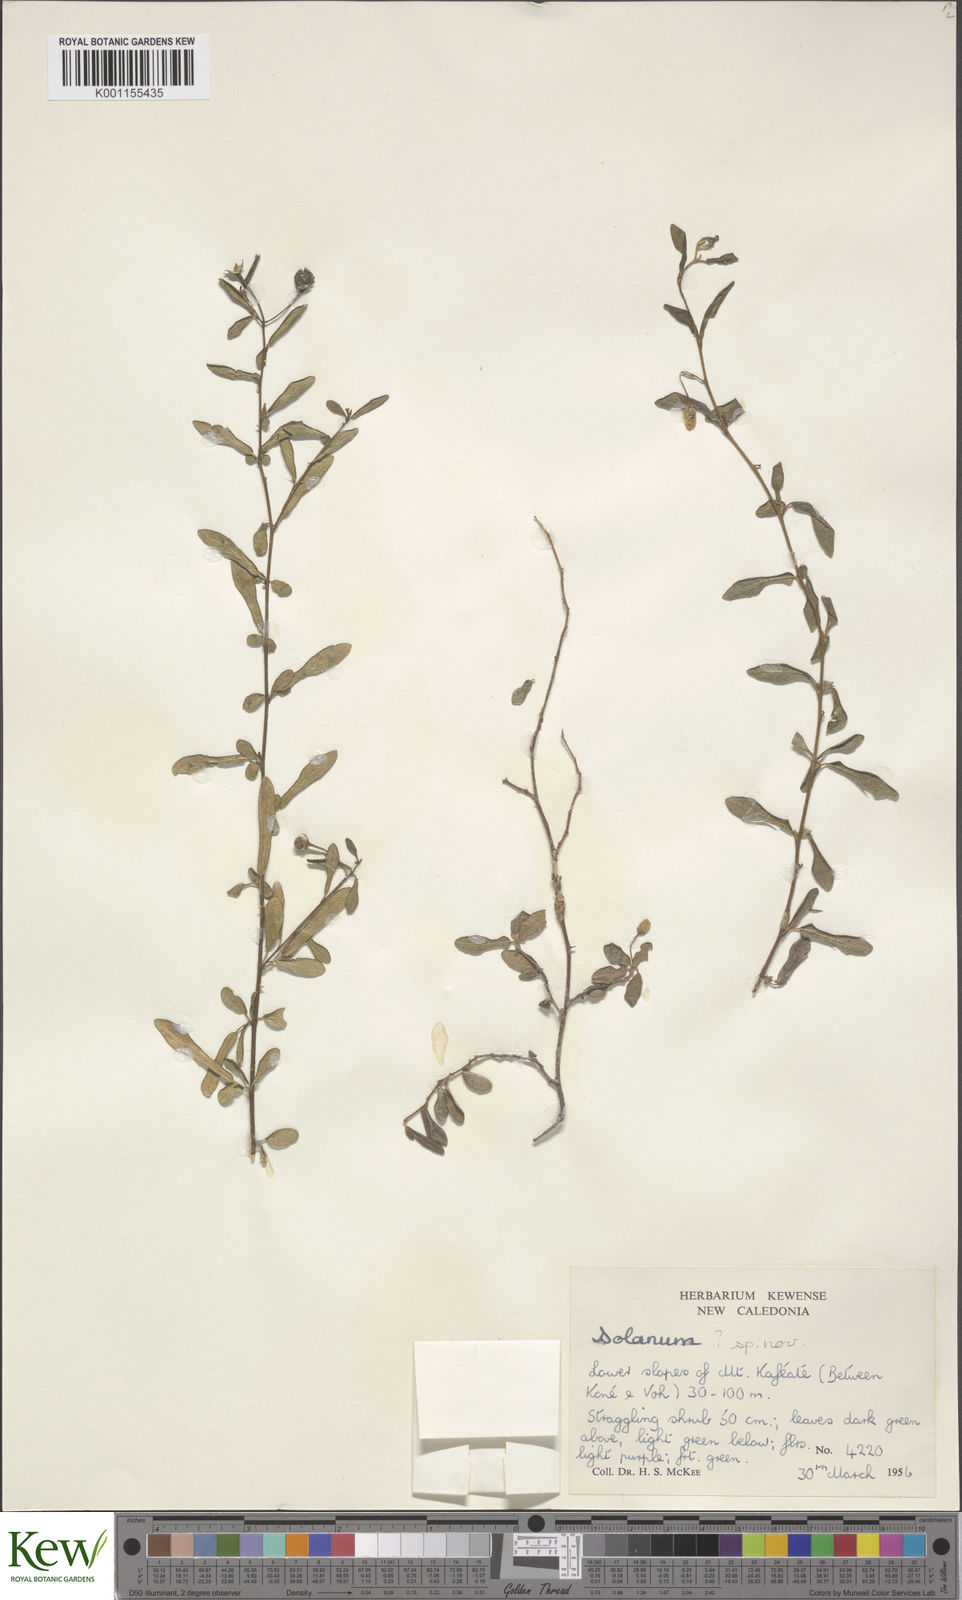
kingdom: Plantae
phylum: Tracheophyta
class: Magnoliopsida
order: Solanales
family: Solanaceae
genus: Solanum
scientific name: Solanum vaccinioides
